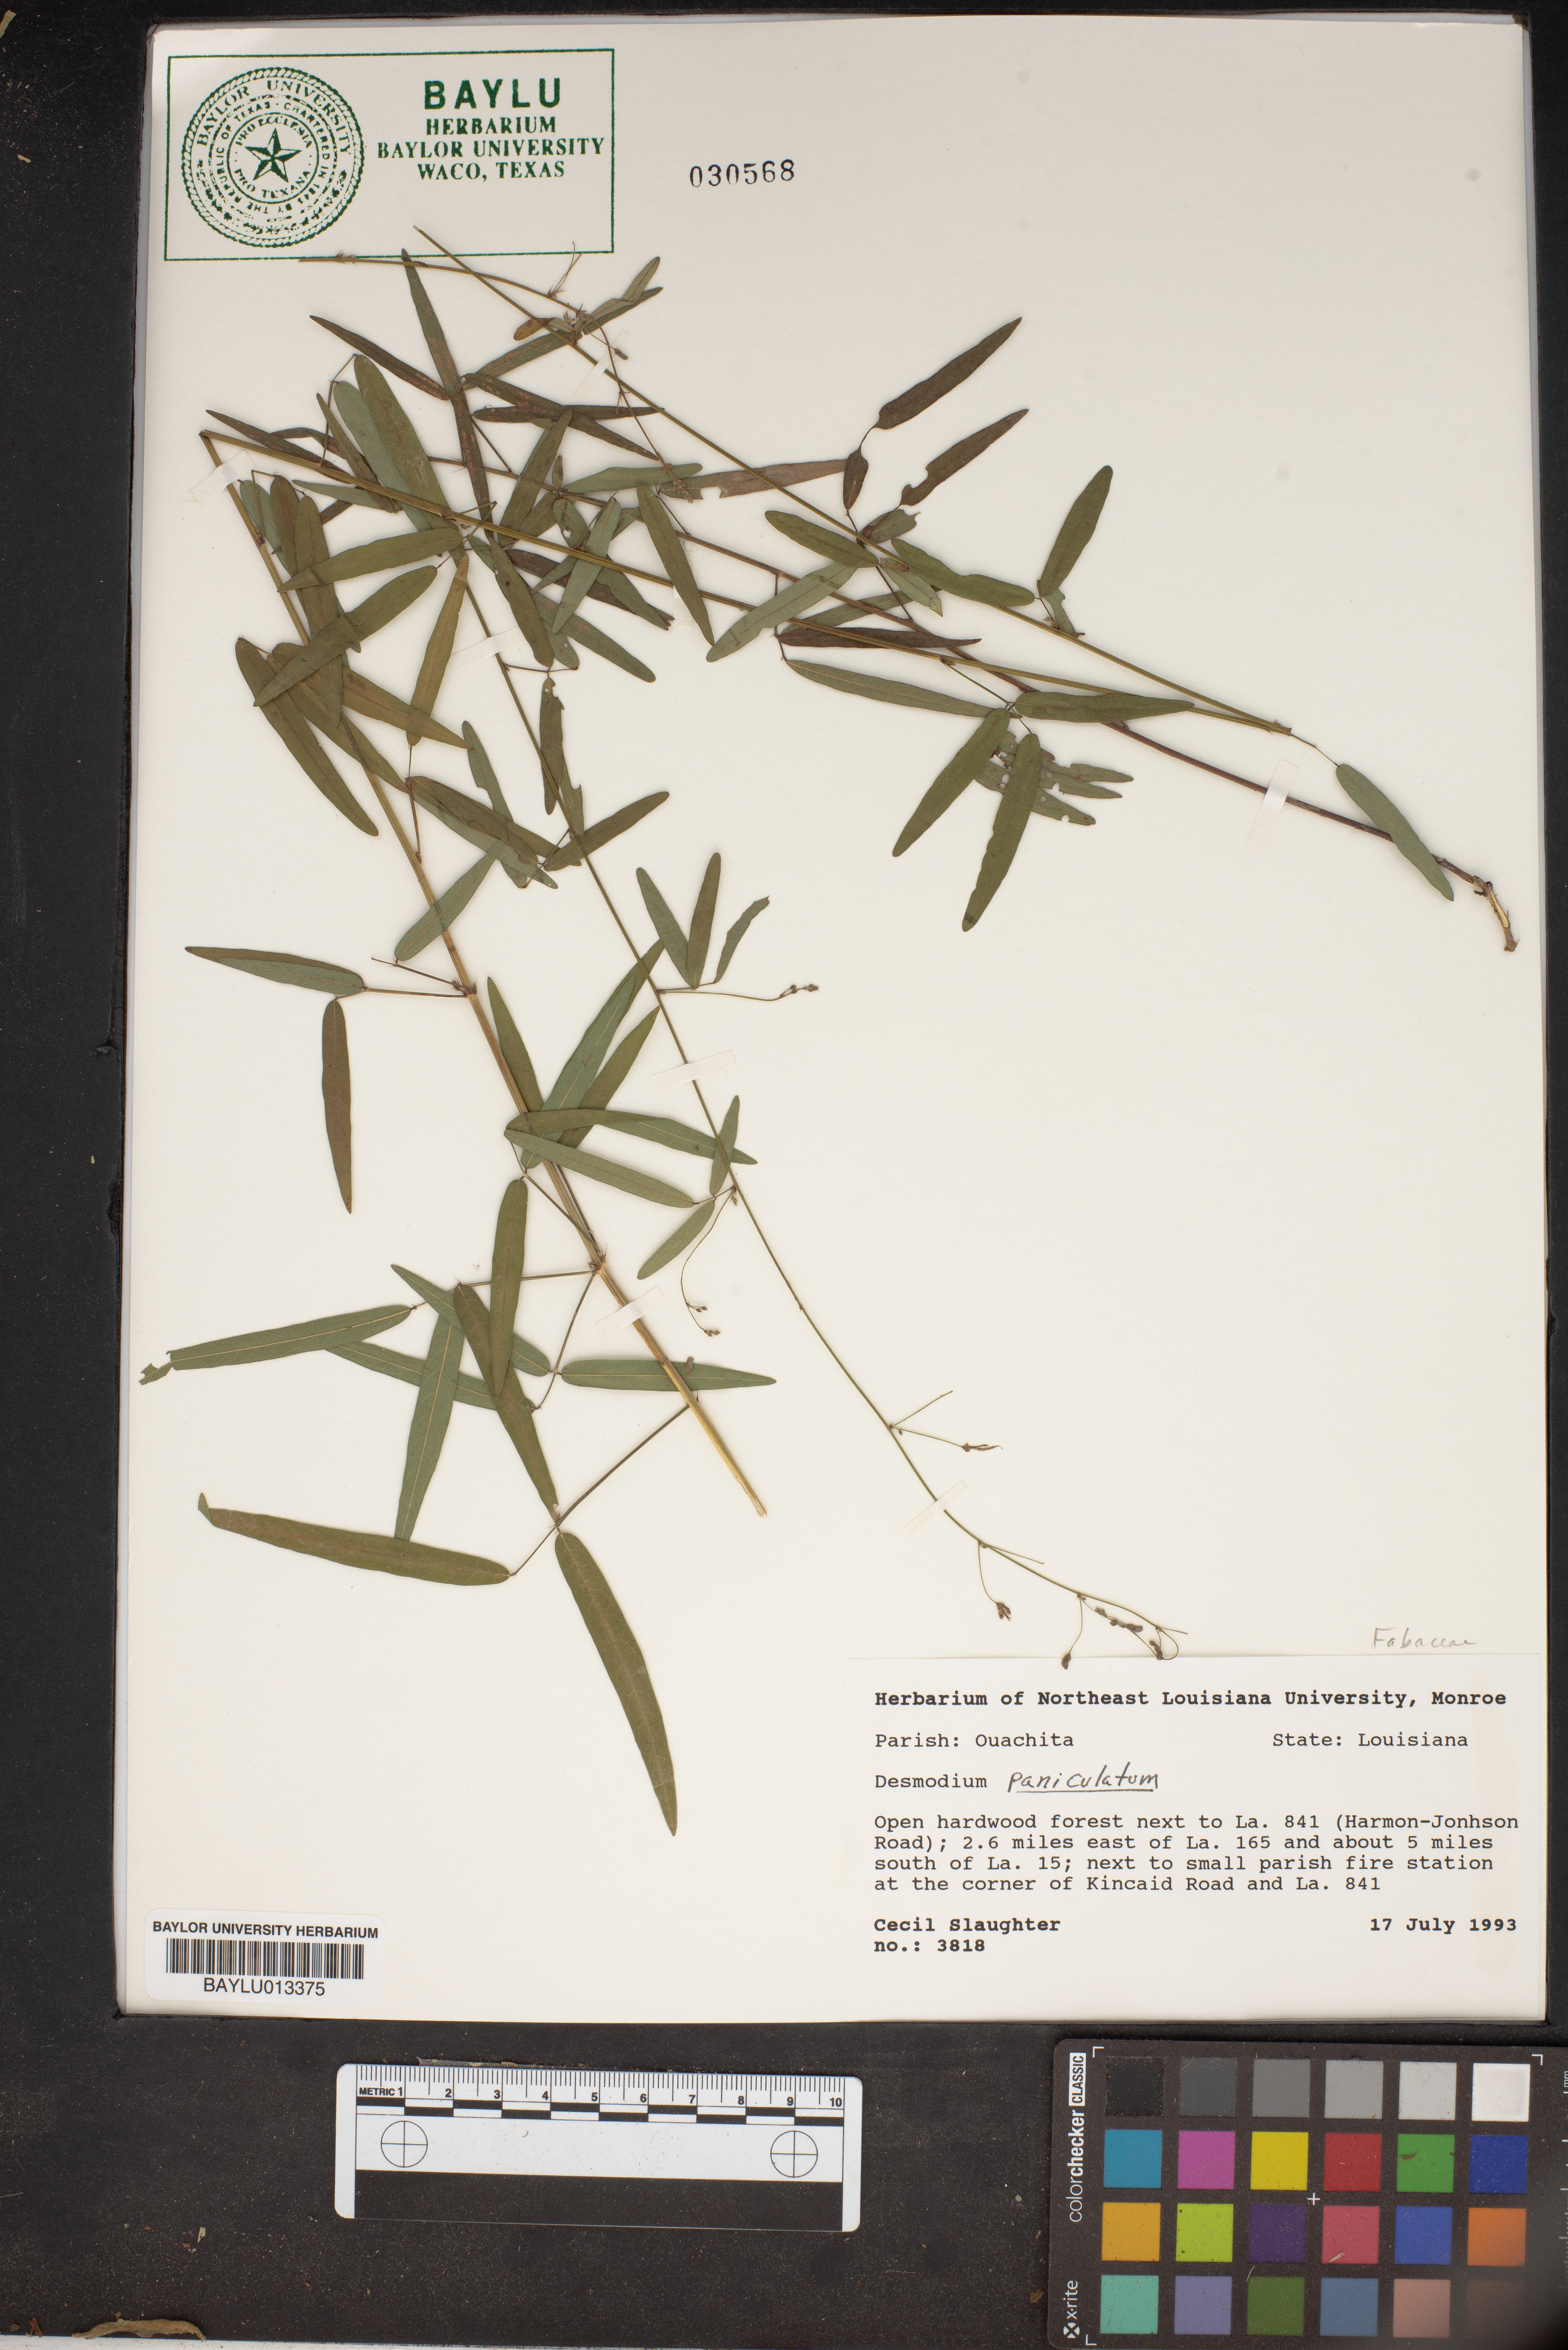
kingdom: Plantae
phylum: Tracheophyta
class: Magnoliopsida
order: Fabales
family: Fabaceae
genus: Desmodium
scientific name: Desmodium paniculatum
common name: Panicled tick-clover
